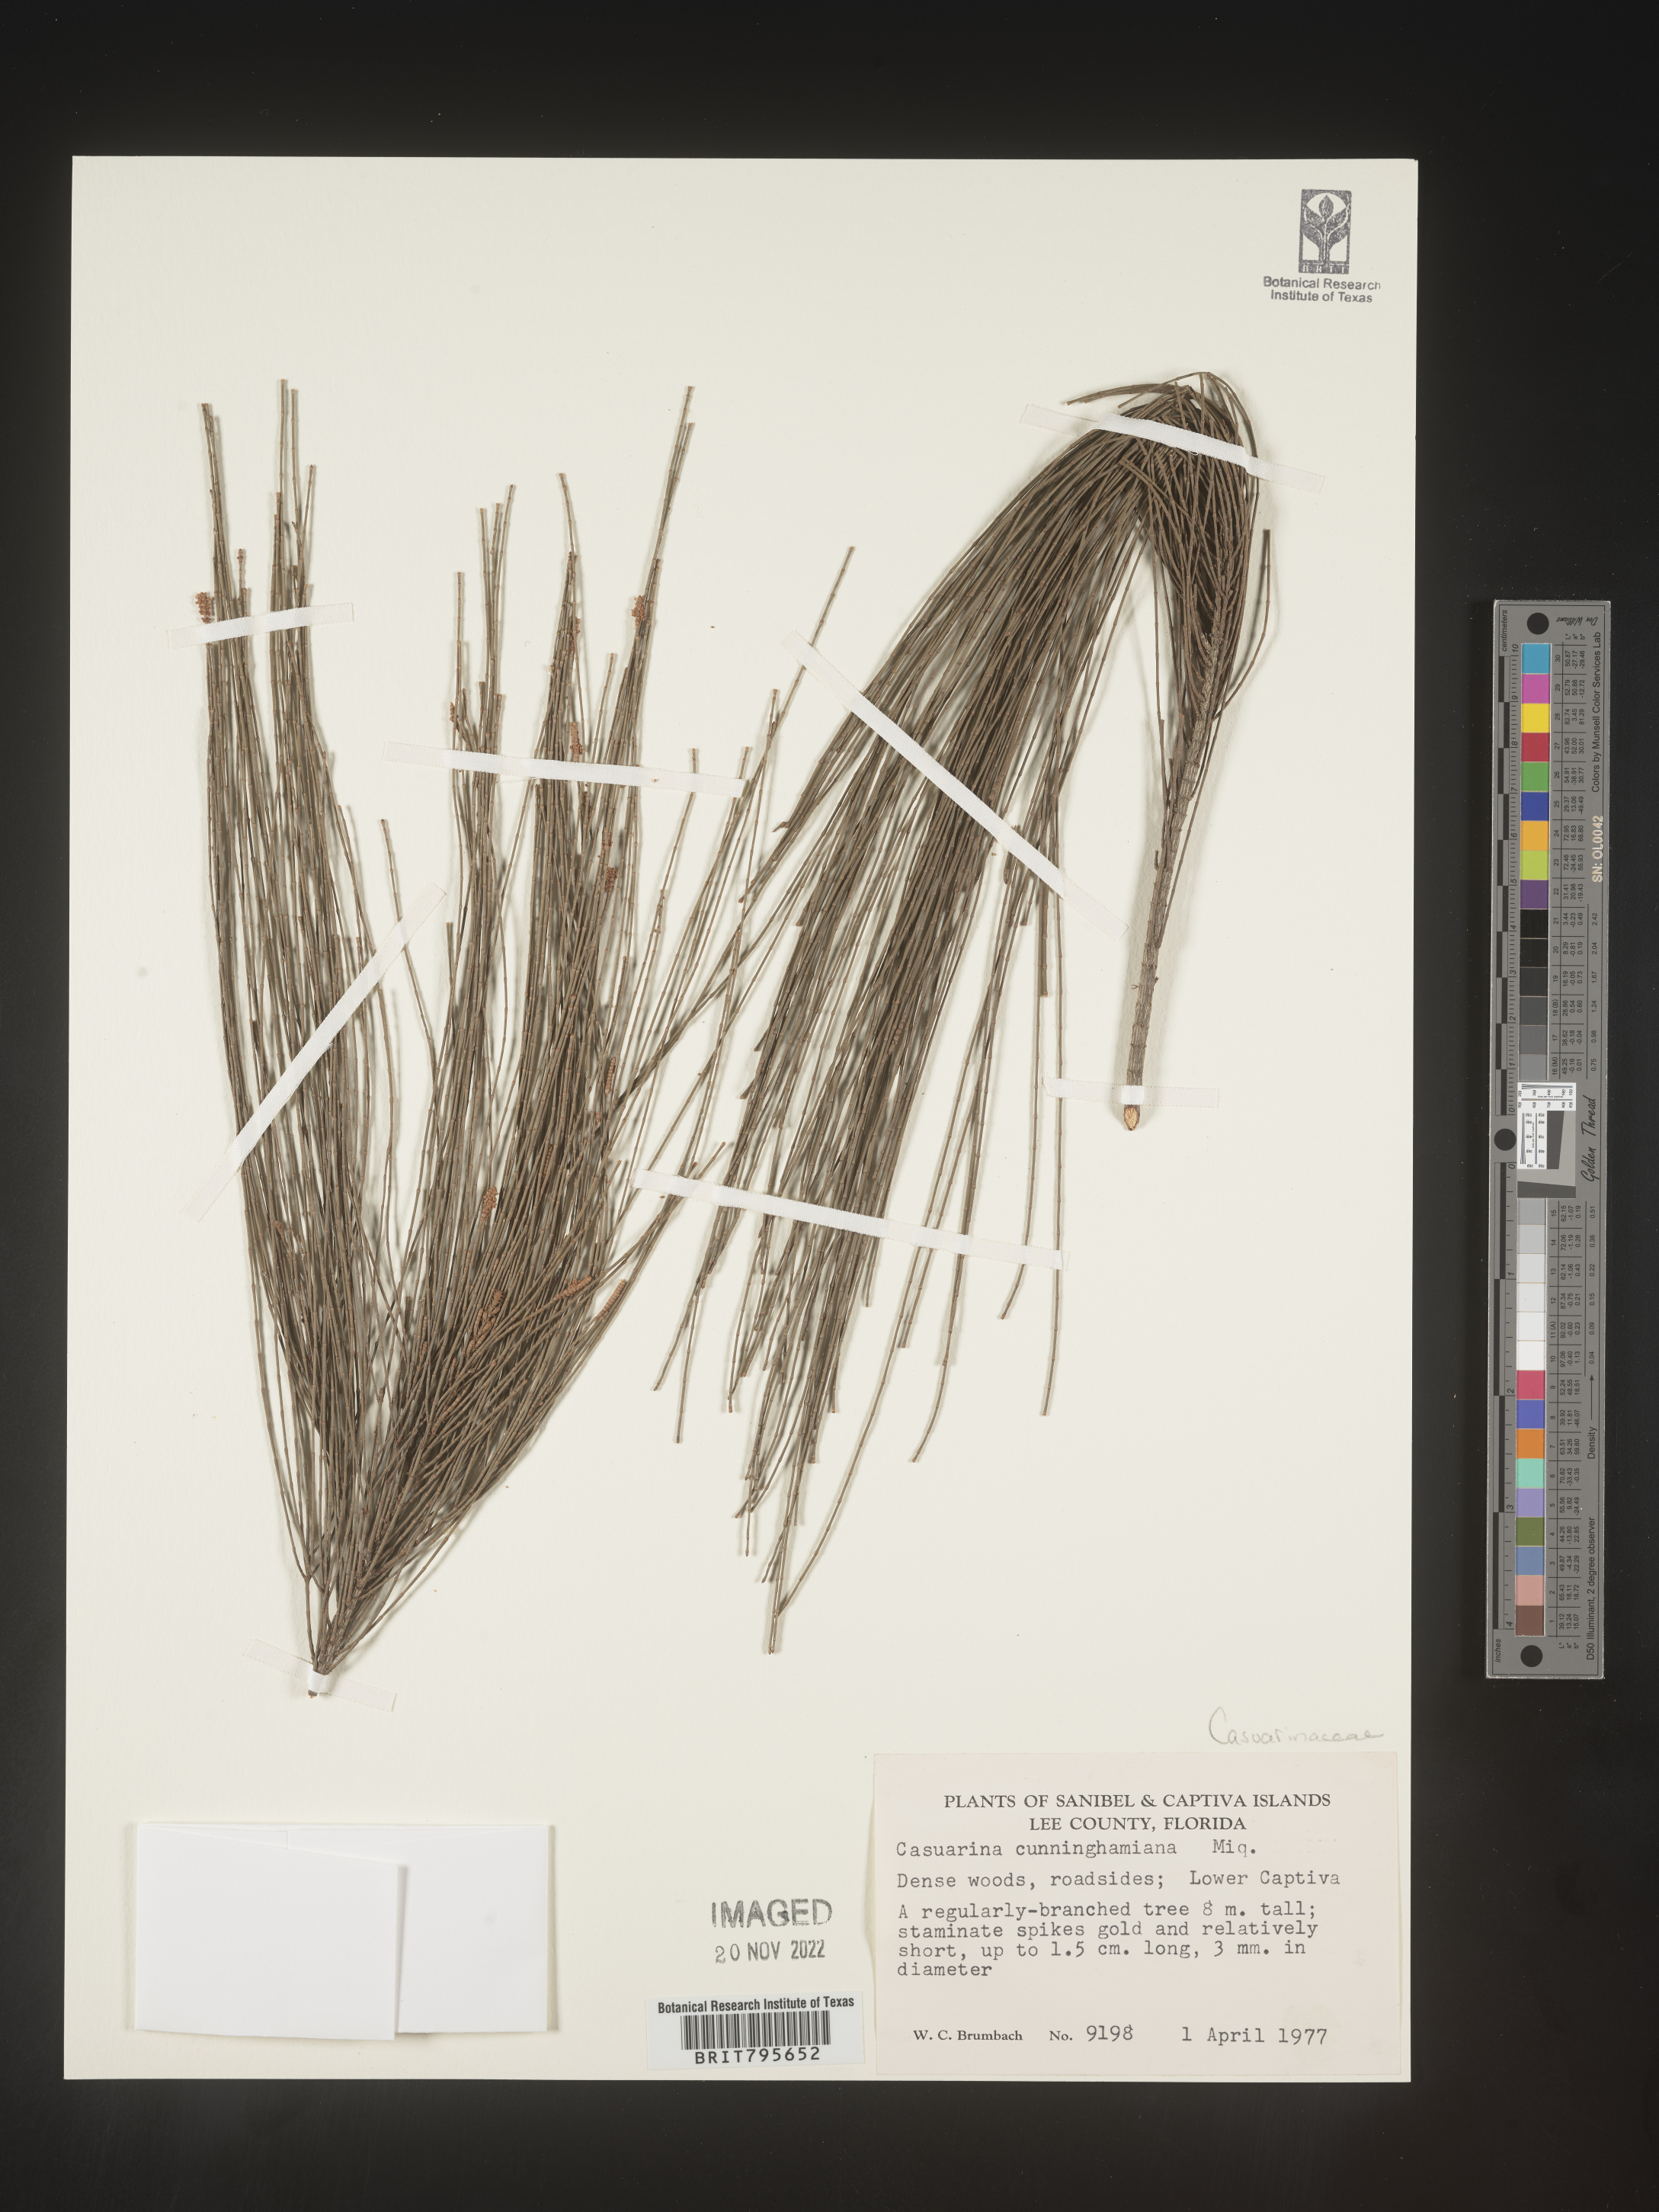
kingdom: Plantae
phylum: Tracheophyta
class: Magnoliopsida
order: Fagales
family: Casuarinaceae
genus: Casuarina
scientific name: Casuarina cunninghamiana
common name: River sheoak
